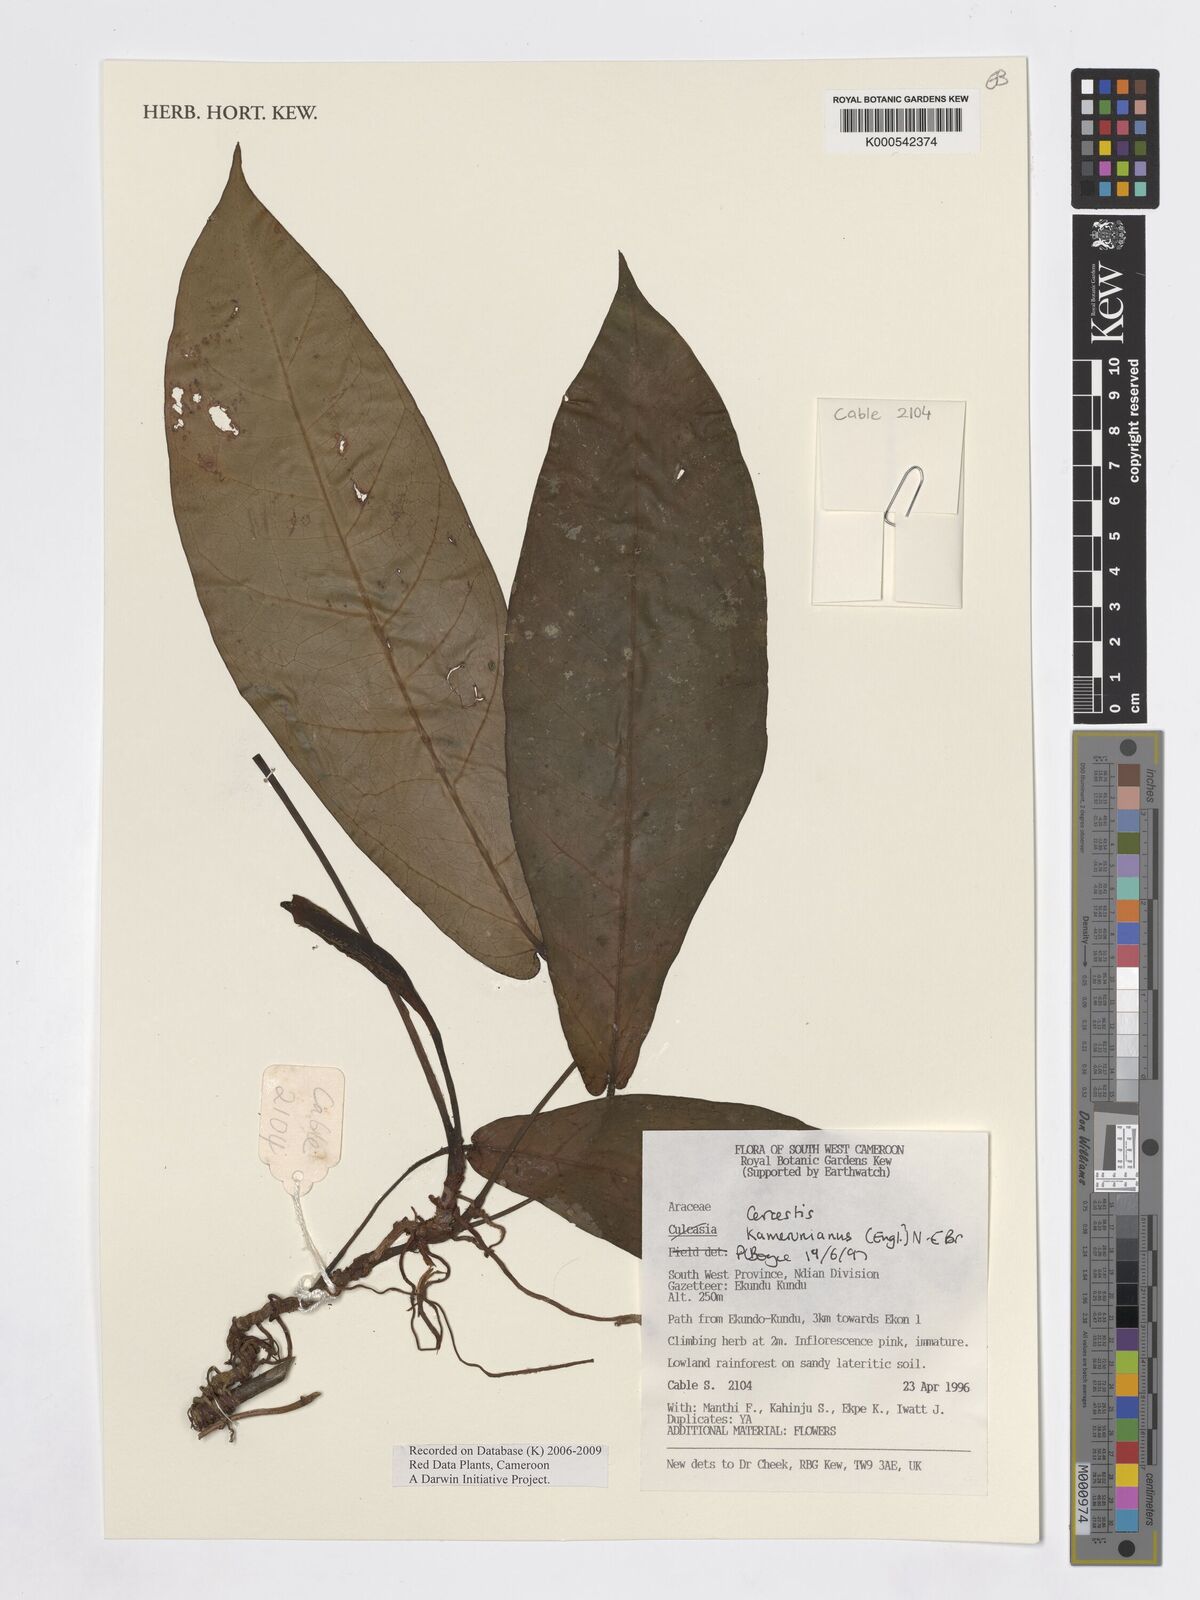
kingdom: Plantae
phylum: Tracheophyta
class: Liliopsida
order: Alismatales
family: Araceae
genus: Cercestis
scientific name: Cercestis kamerunianus
